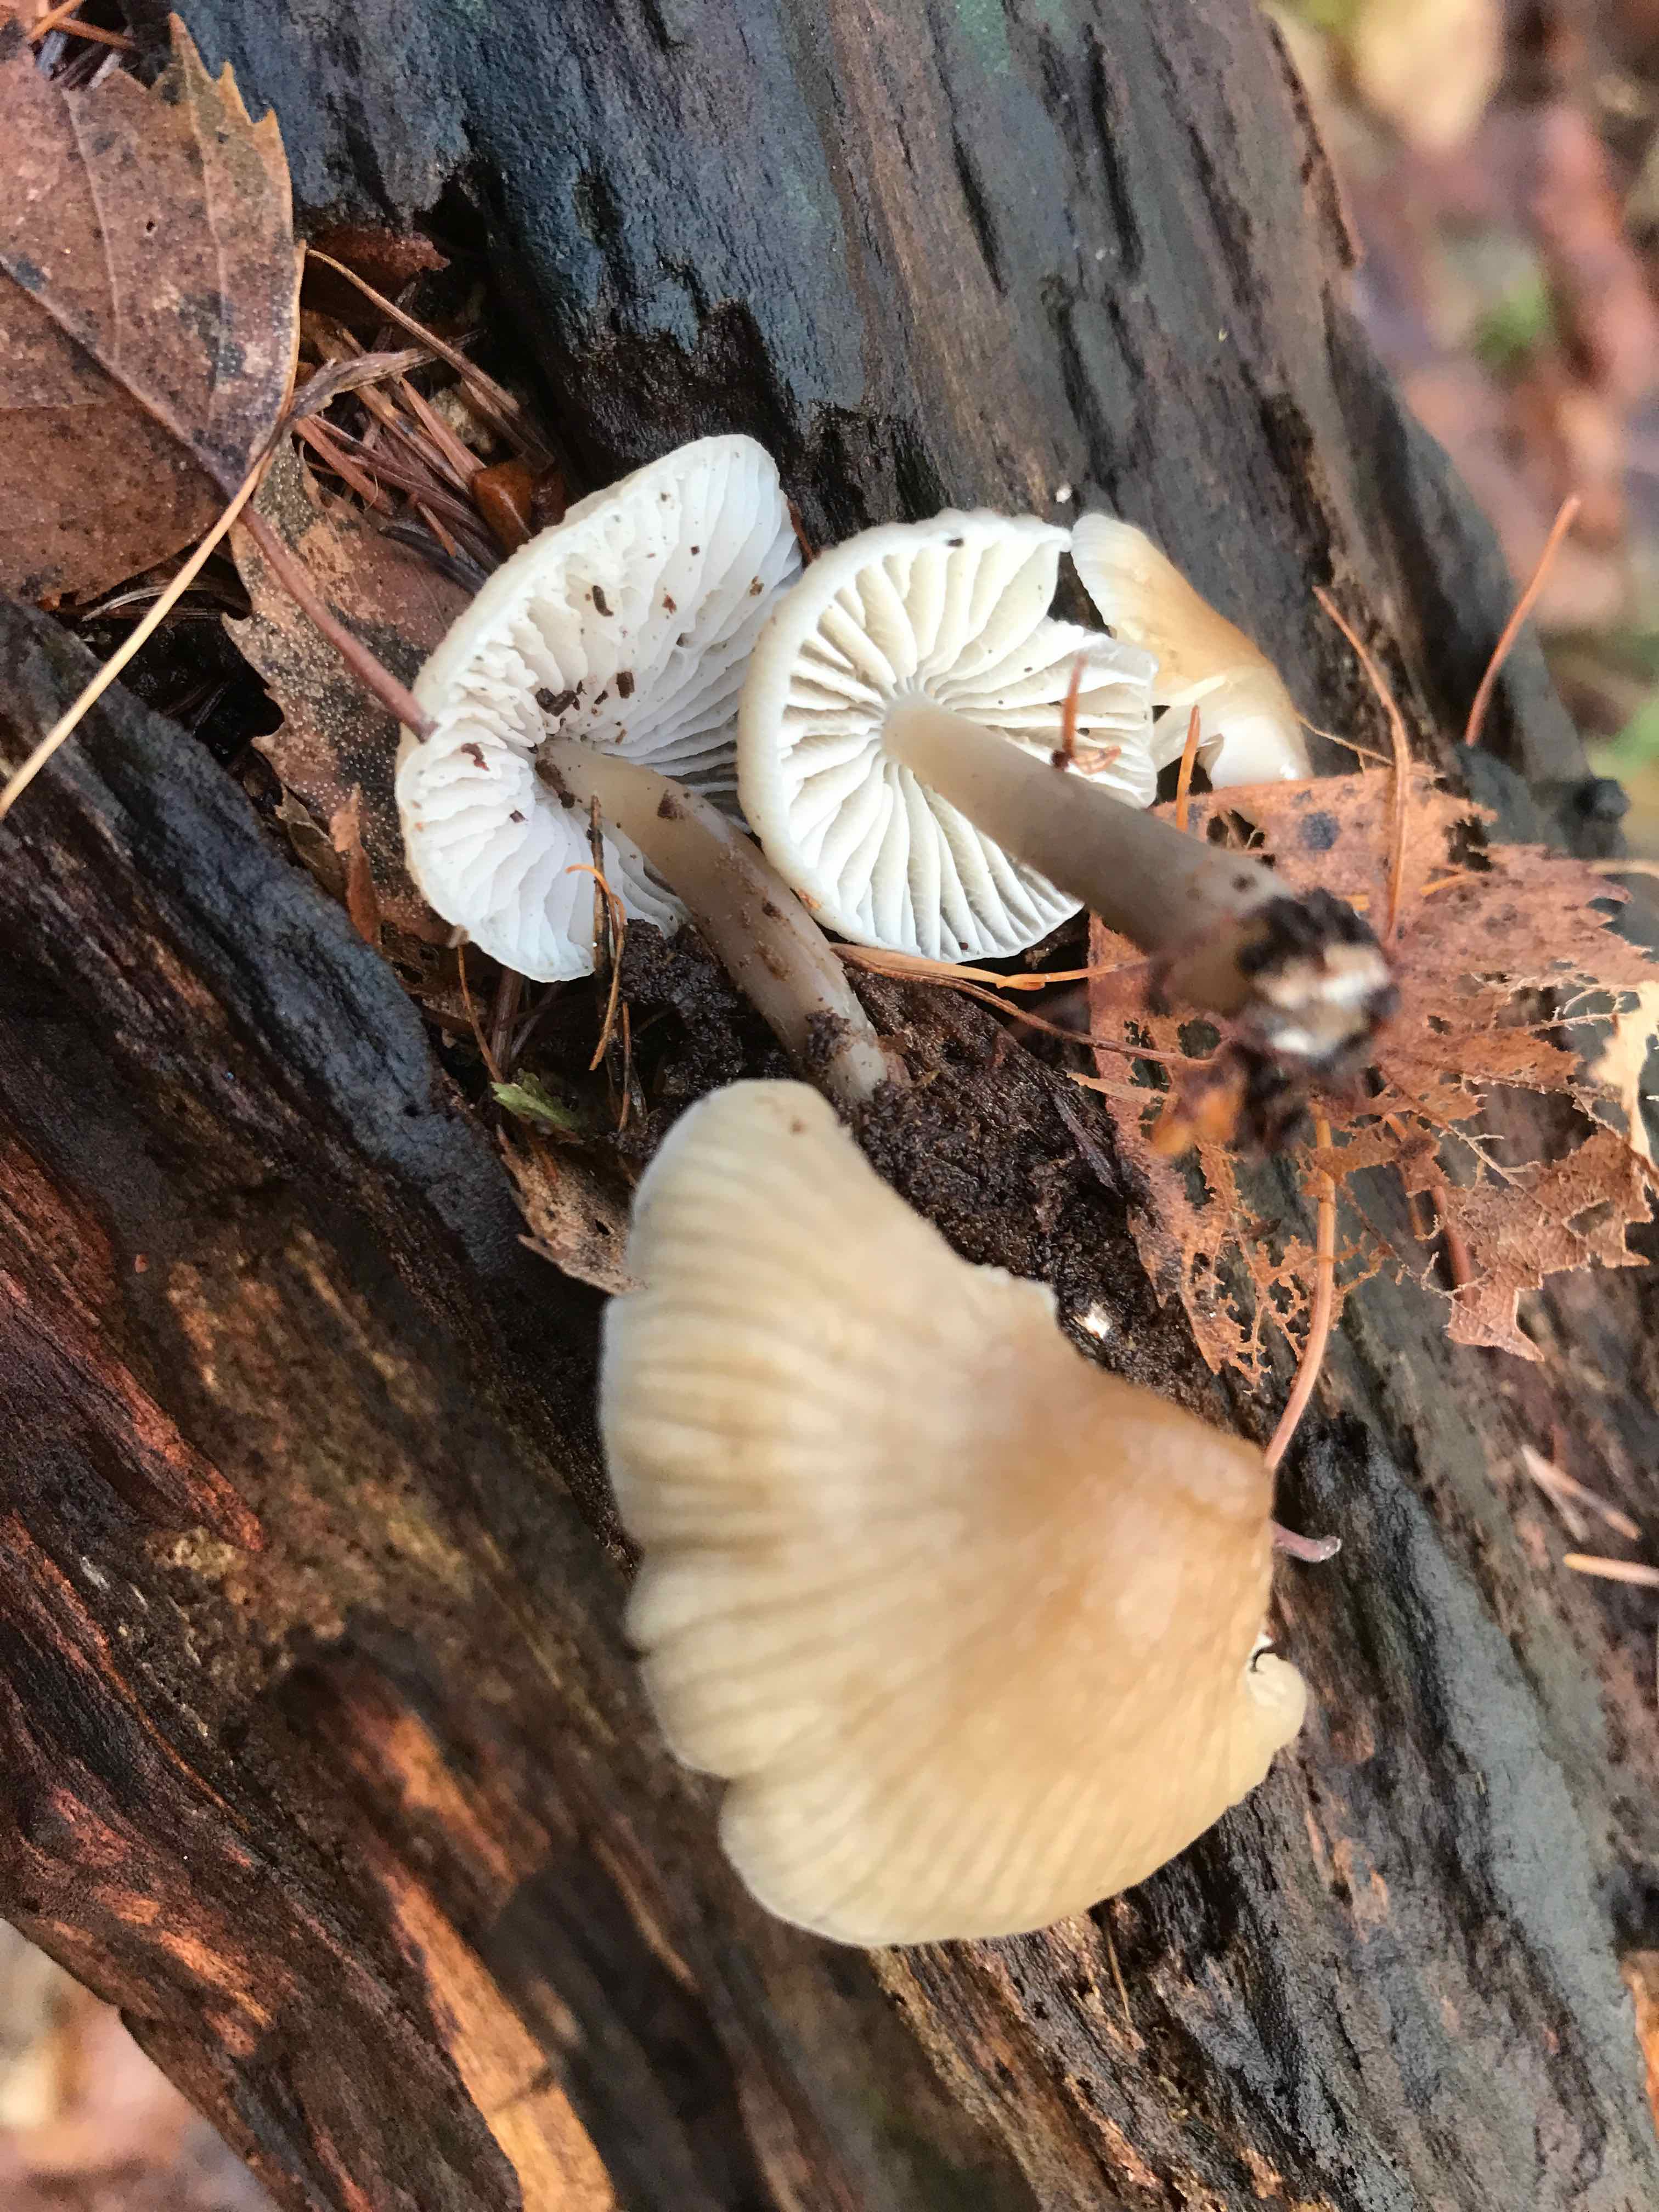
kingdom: Fungi
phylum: Basidiomycota
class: Agaricomycetes
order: Agaricales
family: Mycenaceae
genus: Mycena
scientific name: Mycena galericulata
